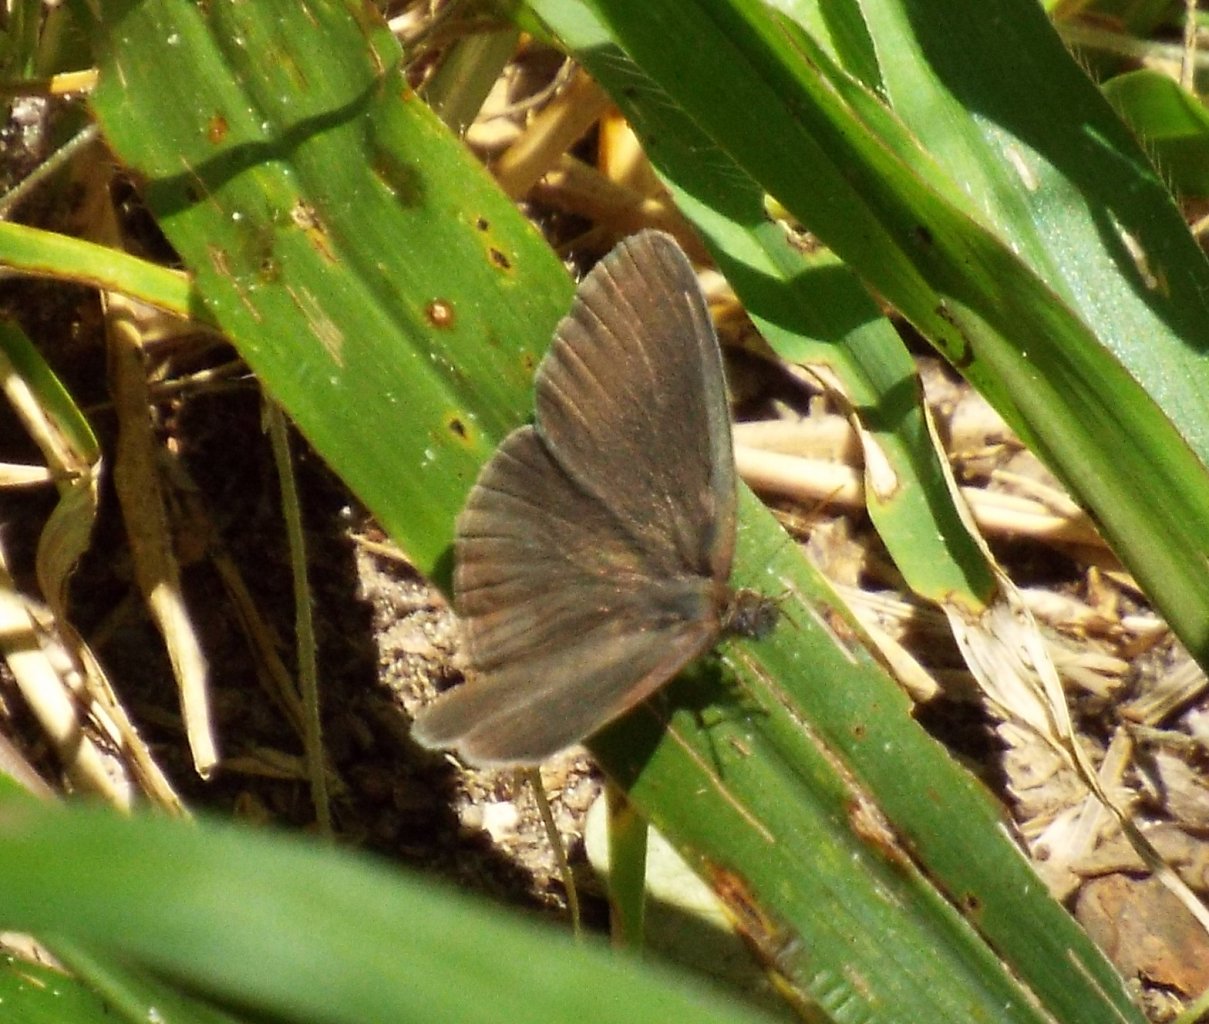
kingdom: Animalia
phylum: Arthropoda
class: Insecta
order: Lepidoptera
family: Nymphalidae
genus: Hermeuptychia
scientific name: Hermeuptychia hermes
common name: Carolina Satyr
